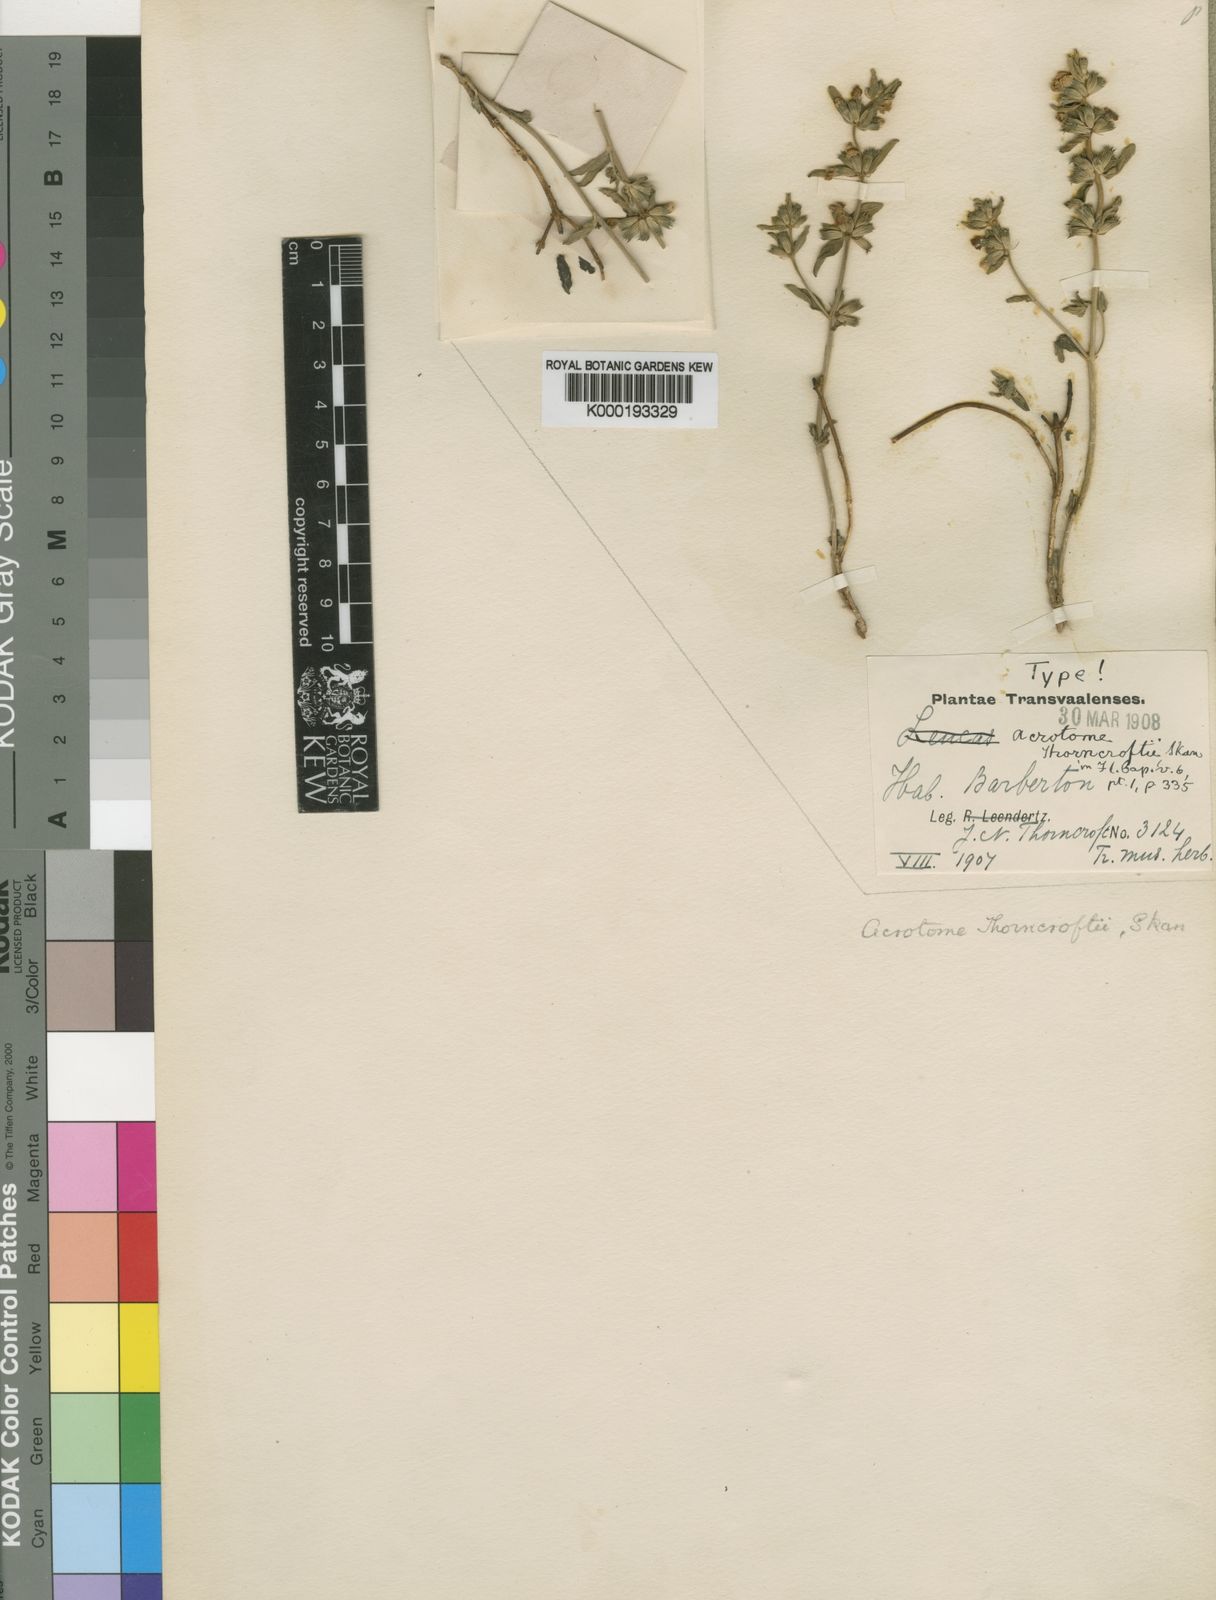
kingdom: Plantae
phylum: Tracheophyta
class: Magnoliopsida
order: Lamiales
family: Lamiaceae
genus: Acrotome
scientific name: Acrotome thorncroftii
